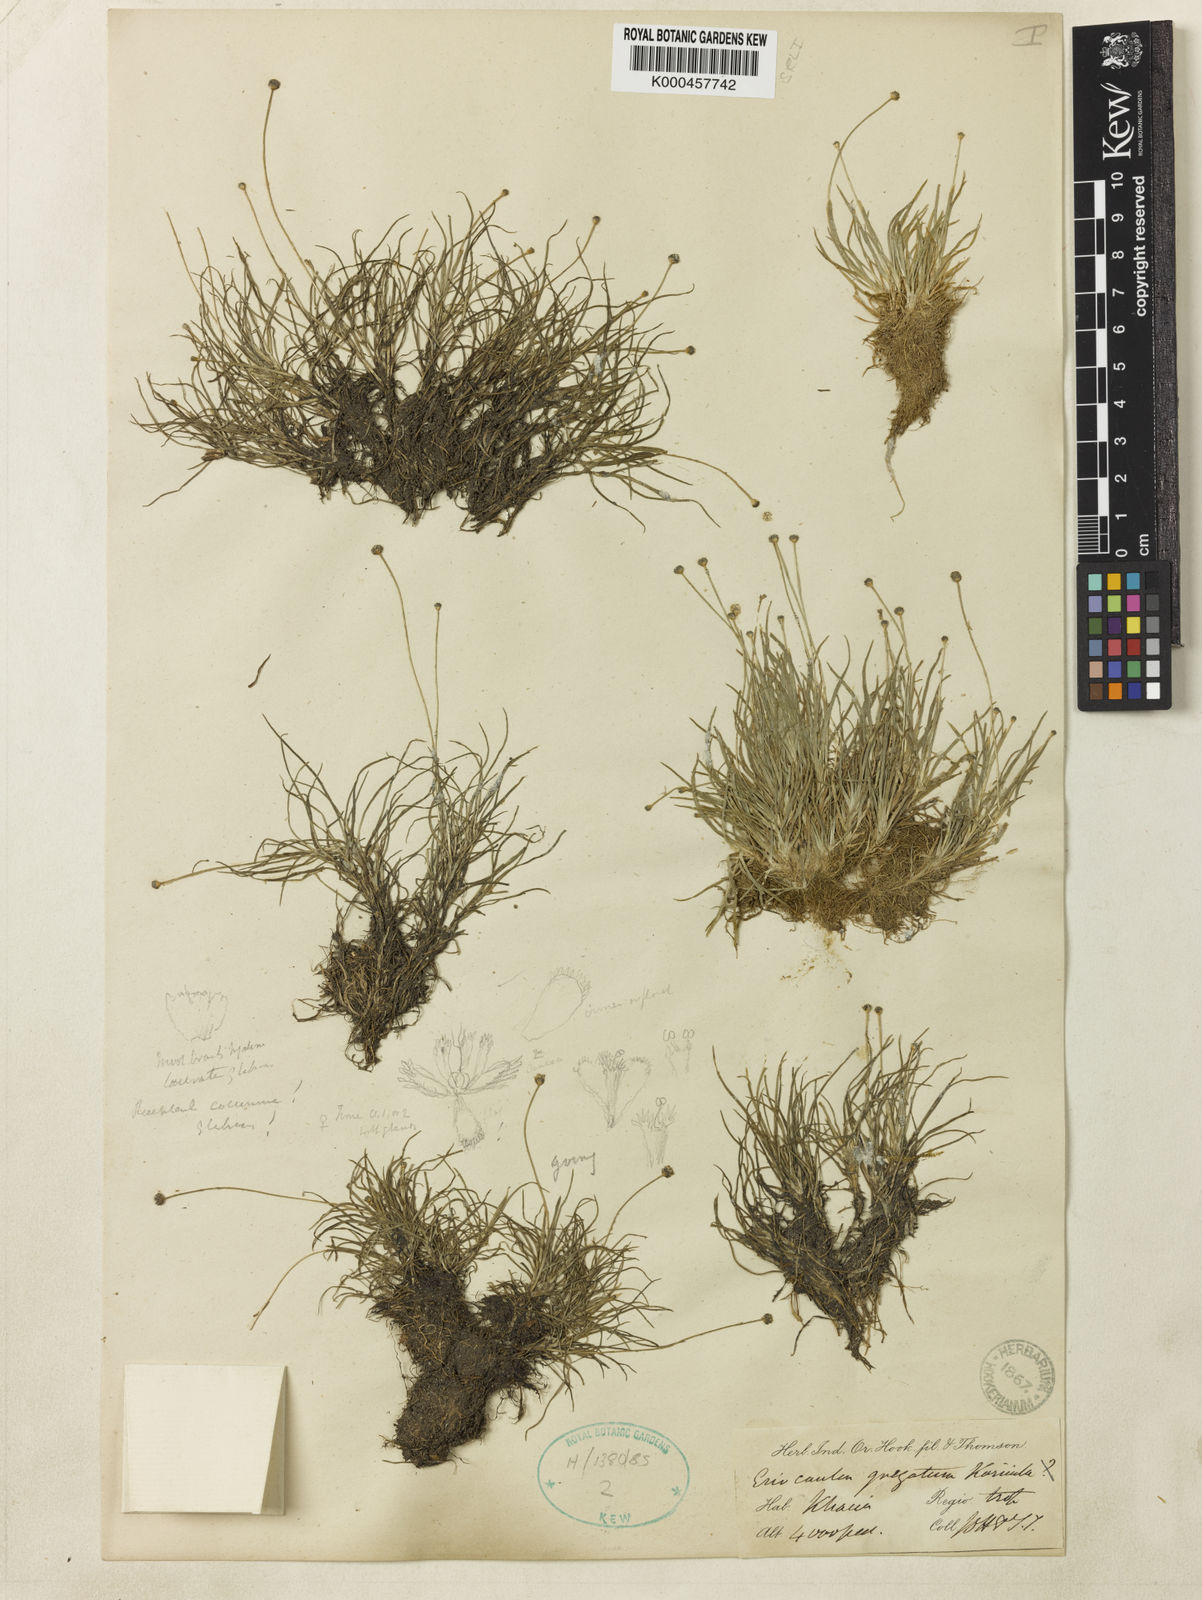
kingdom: Plantae
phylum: Tracheophyta
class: Liliopsida
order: Poales
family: Eriocaulaceae
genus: Eriocaulon
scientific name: Eriocaulon
